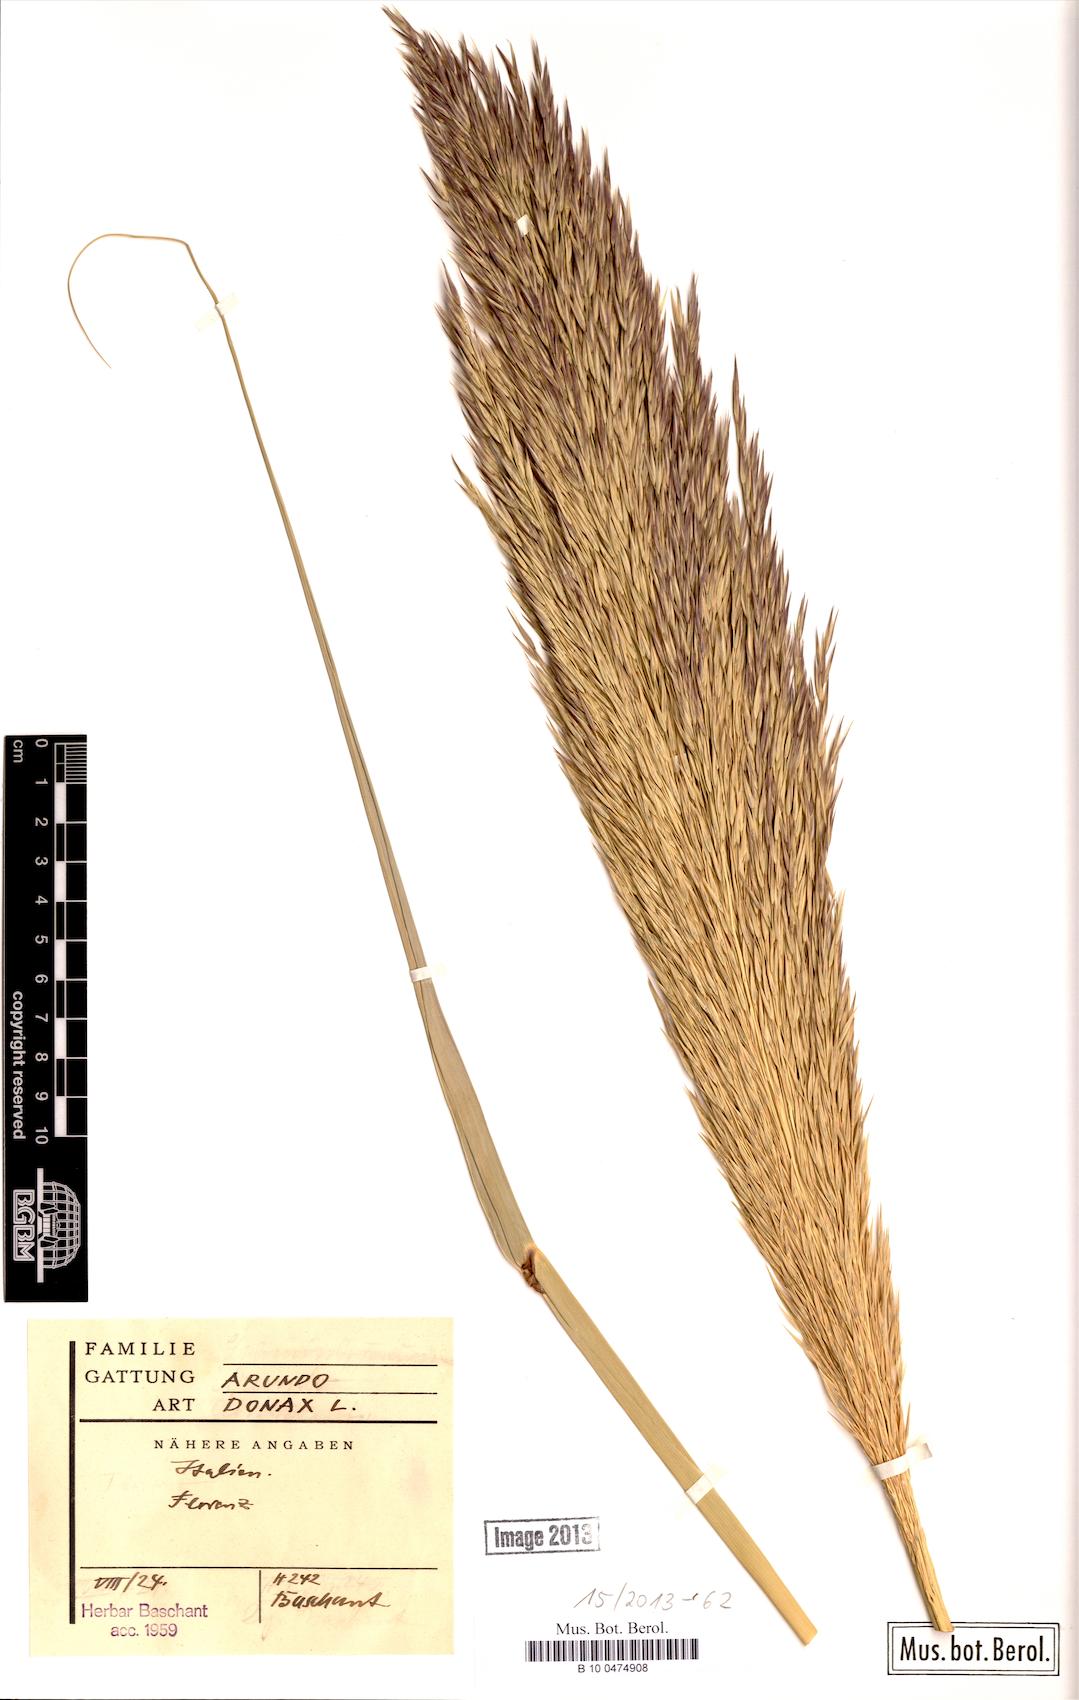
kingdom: Plantae
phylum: Tracheophyta
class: Liliopsida
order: Poales
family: Poaceae
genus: Arundo
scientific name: Arundo donax
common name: Giant reed
